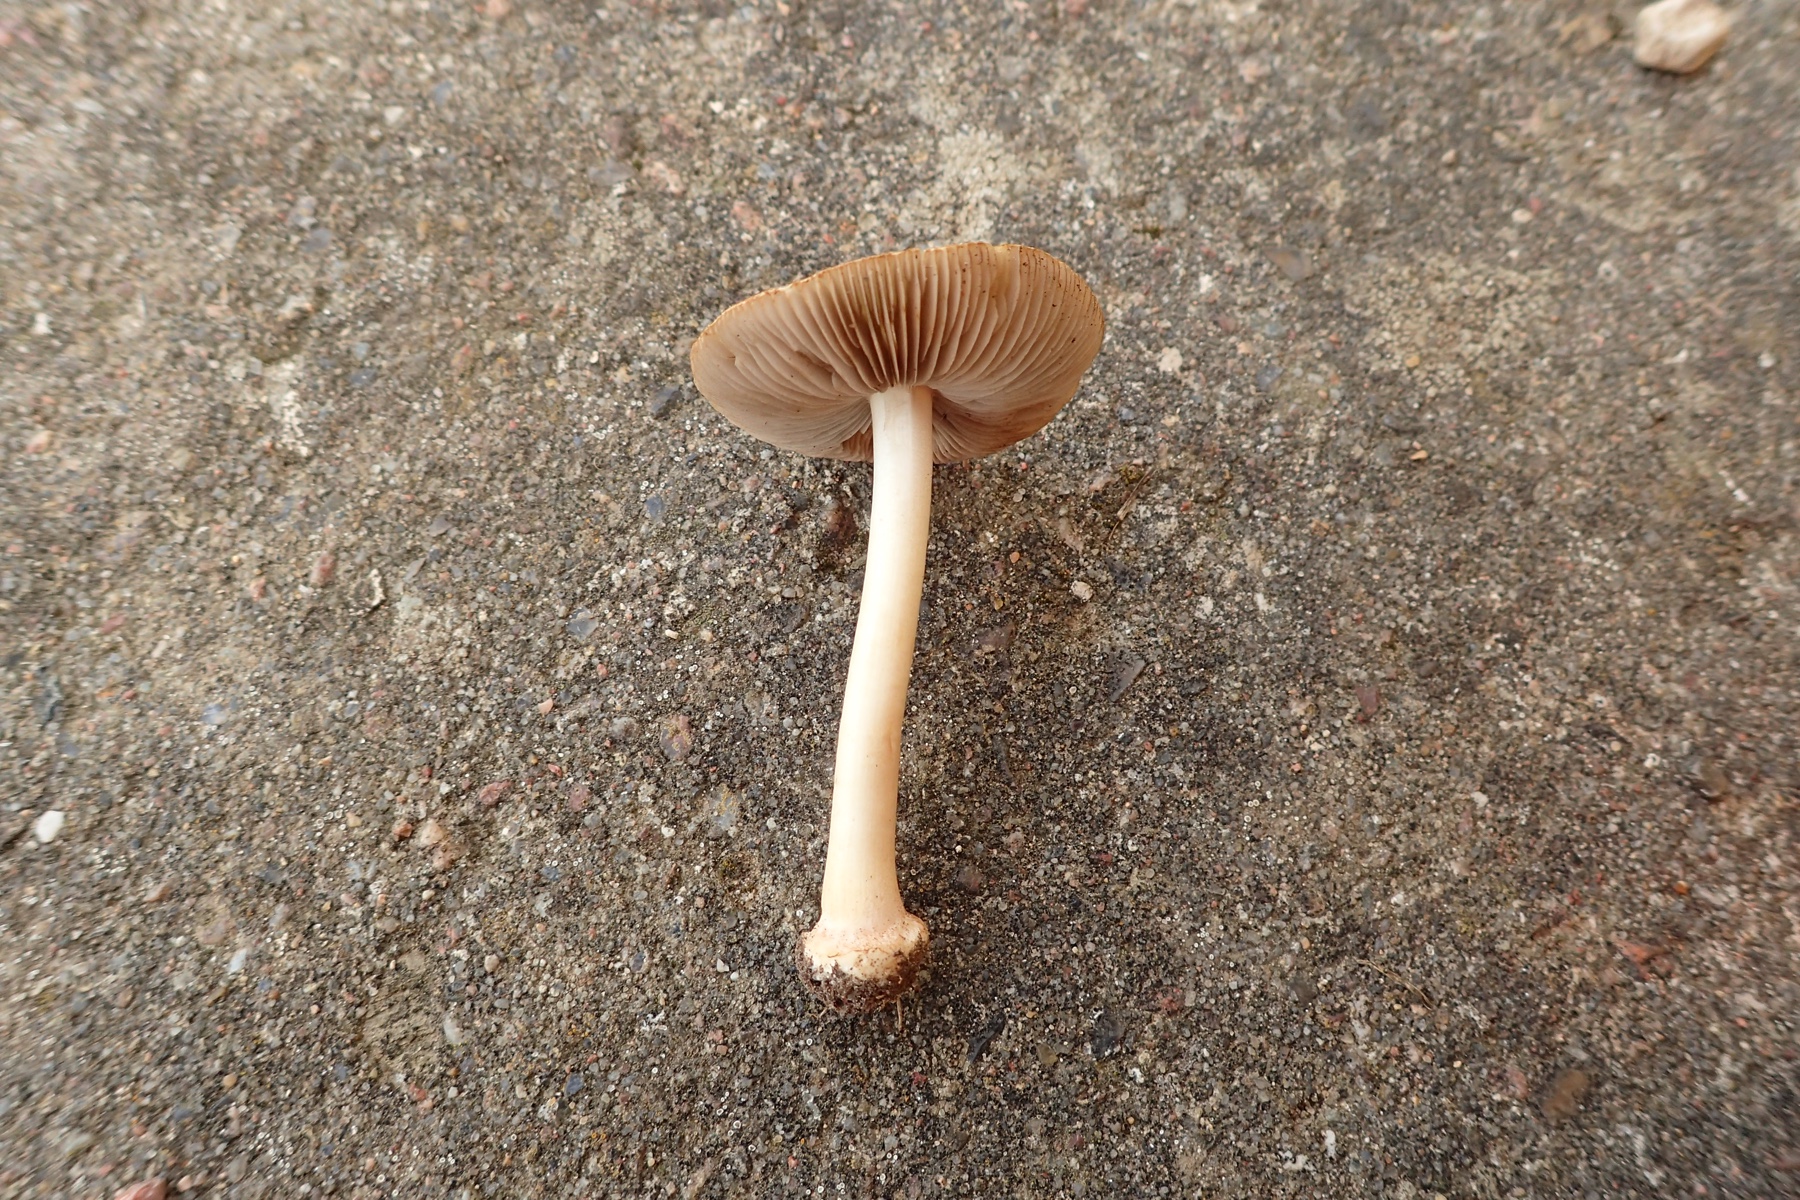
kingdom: Fungi
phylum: Basidiomycota
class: Agaricomycetes
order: Agaricales
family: Inocybaceae
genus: Inocybe
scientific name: Inocybe mixtilis
